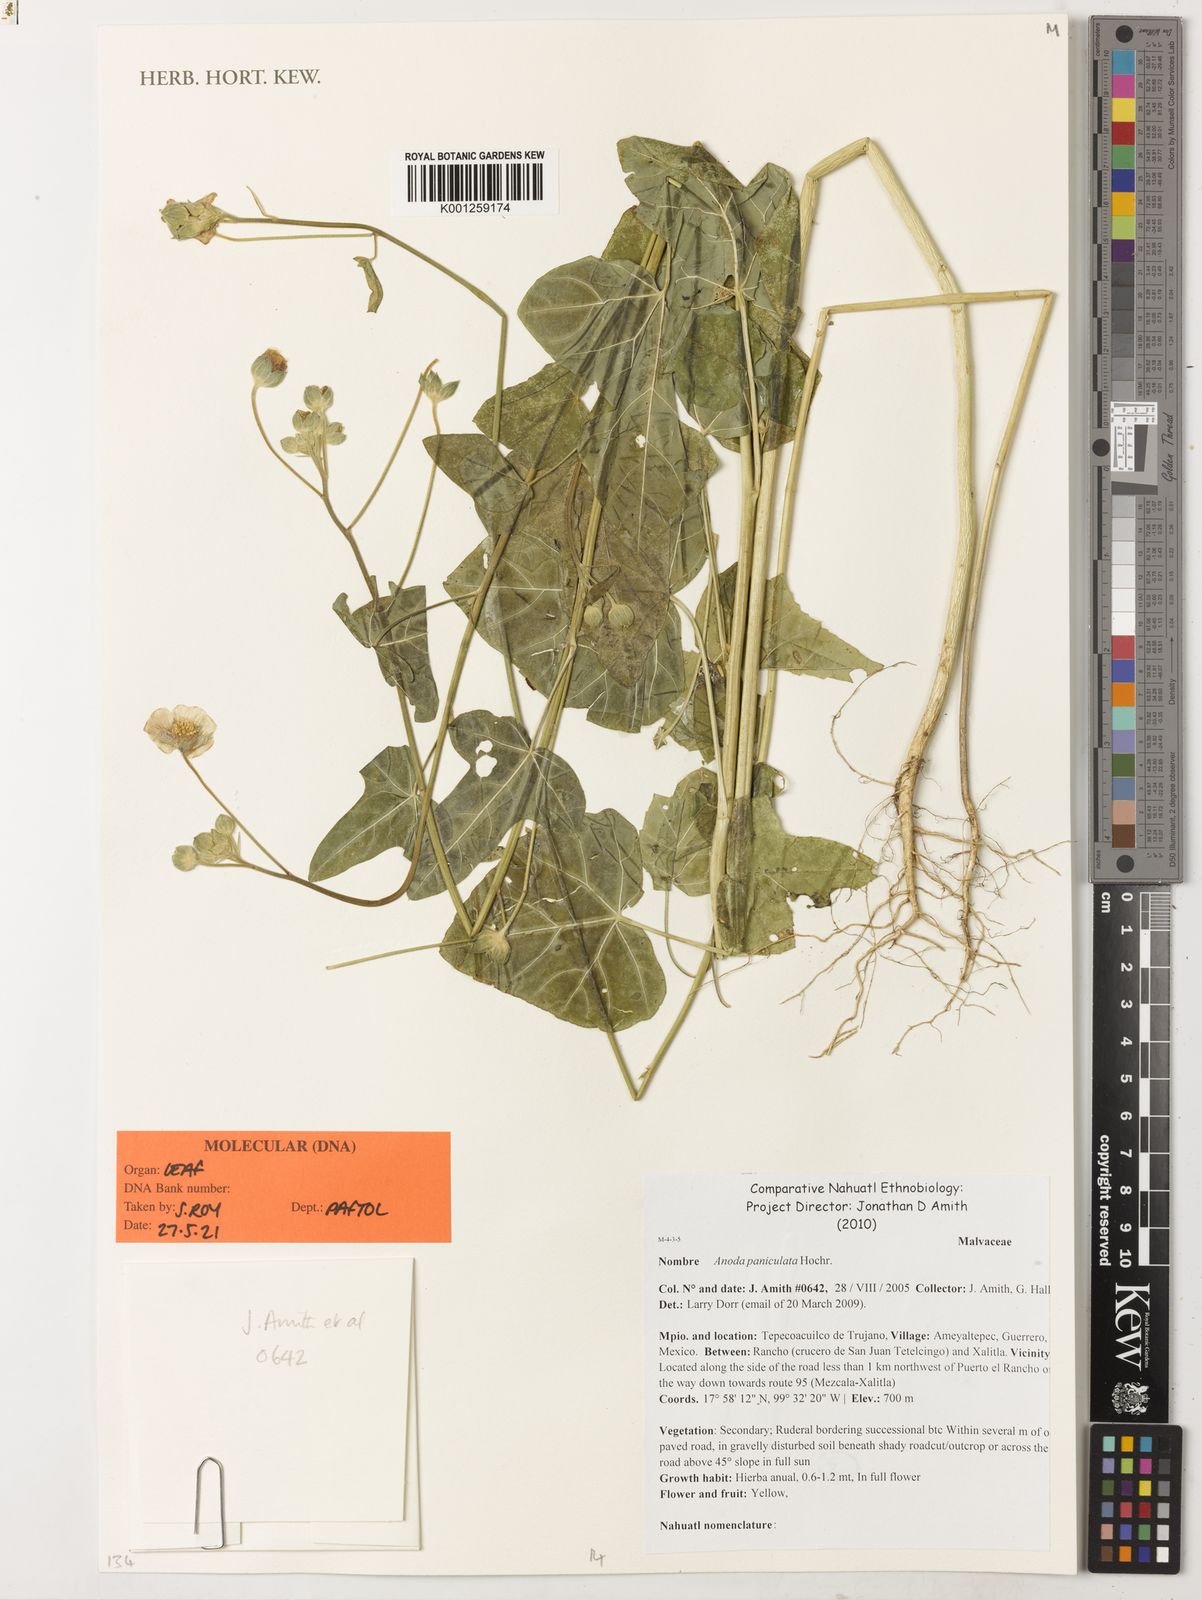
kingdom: Plantae
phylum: Tracheophyta
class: Magnoliopsida
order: Malvales
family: Malvaceae
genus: Anoda
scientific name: Anoda paniculata
